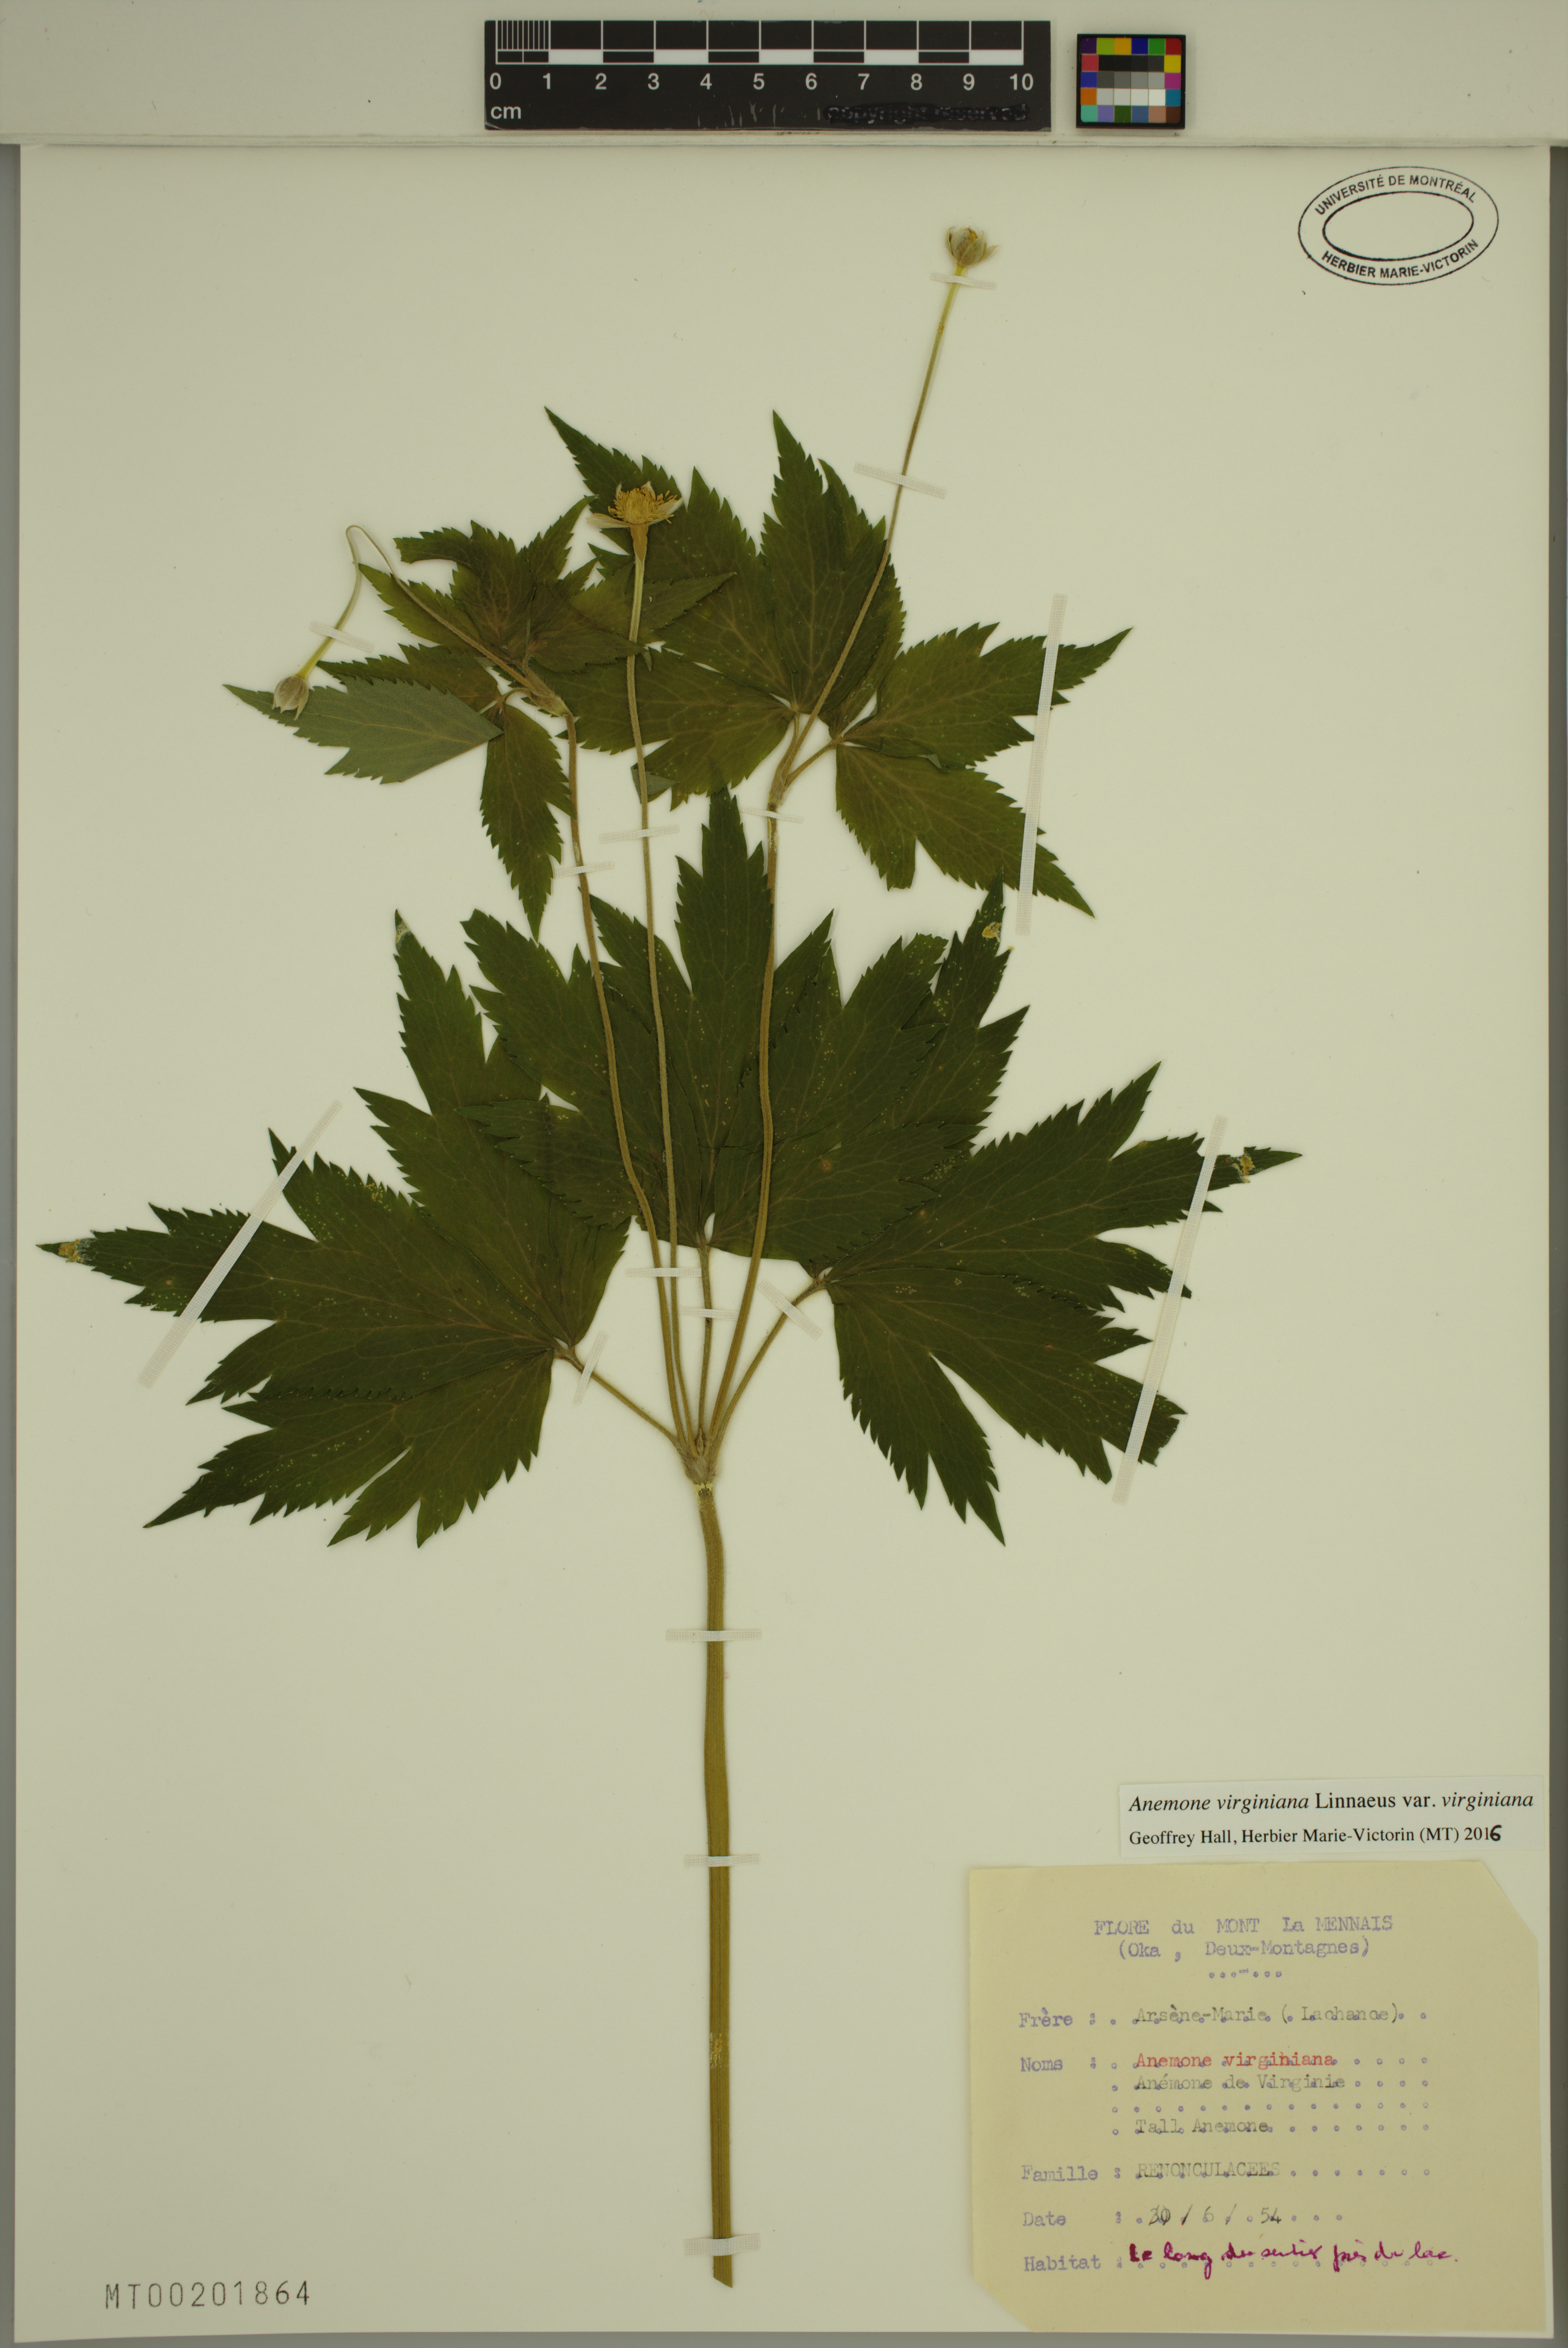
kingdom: Plantae
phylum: Tracheophyta
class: Magnoliopsida
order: Ranunculales
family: Ranunculaceae
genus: Anemone
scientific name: Anemone virginiana
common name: Tall anemone
